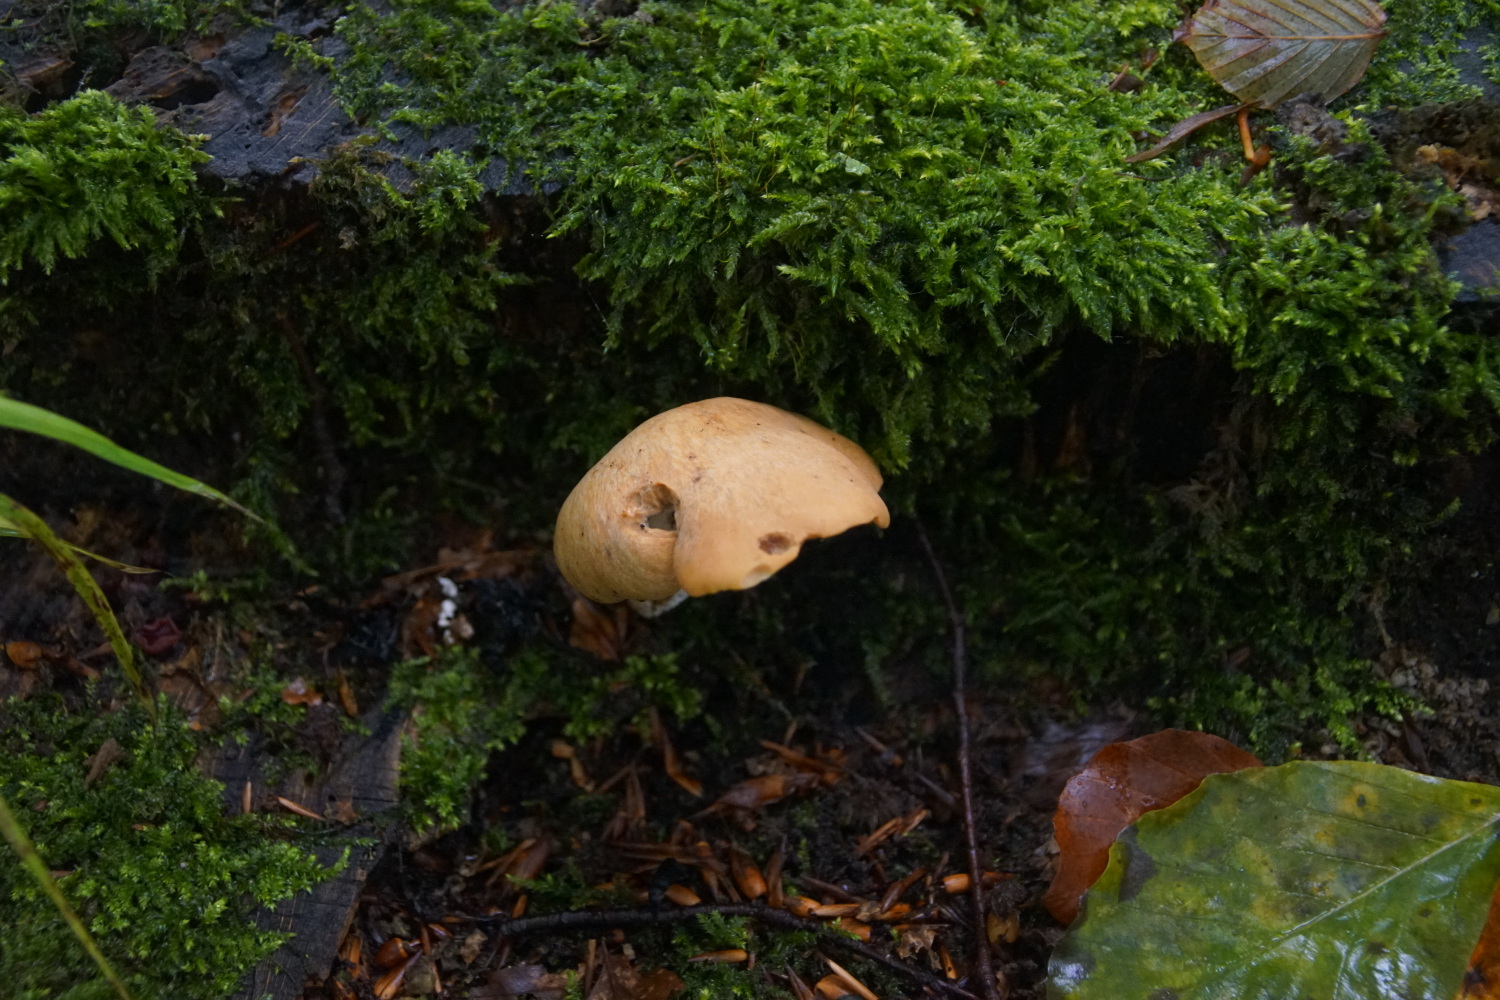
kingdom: Fungi
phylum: Basidiomycota
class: Agaricomycetes
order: Polyporales
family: Polyporaceae
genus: Cerioporus
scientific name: Cerioporus varius
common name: foranderlig stilkporesvamp
